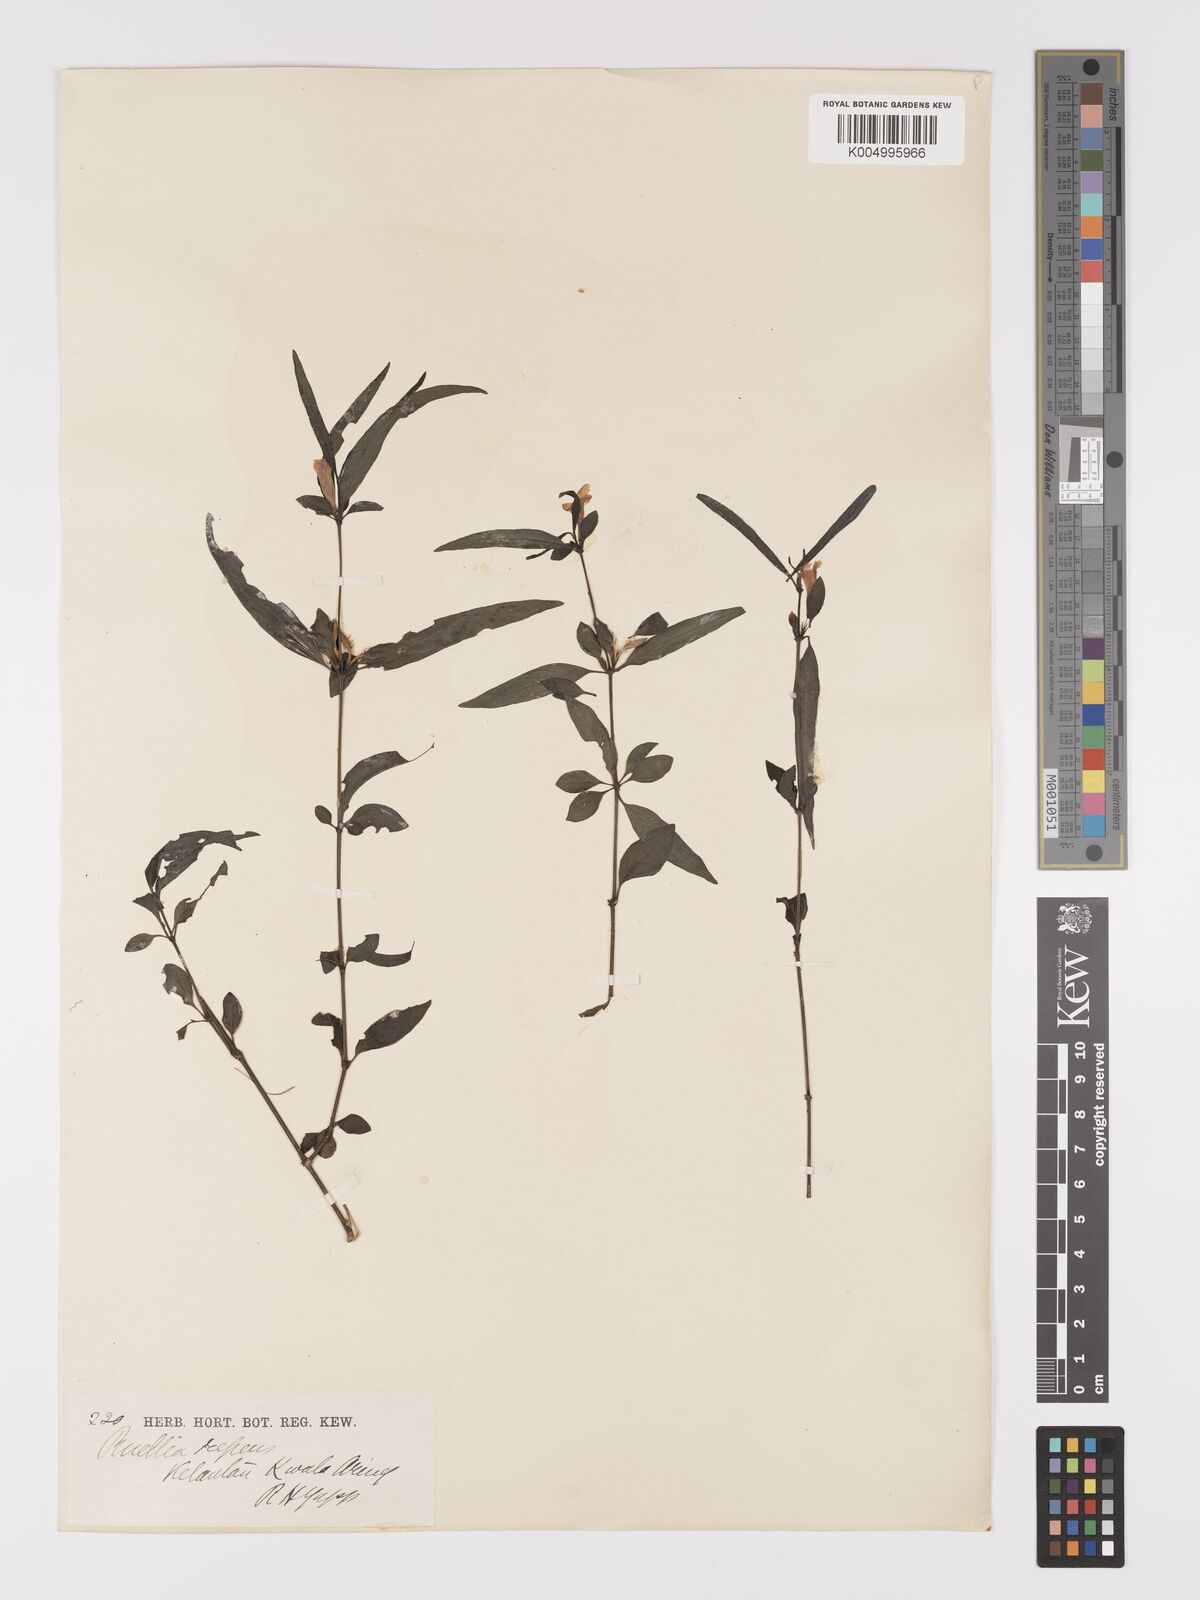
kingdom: Plantae
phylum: Tracheophyta
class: Magnoliopsida
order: Lamiales
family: Acanthaceae
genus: Ruellia
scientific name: Ruellia
